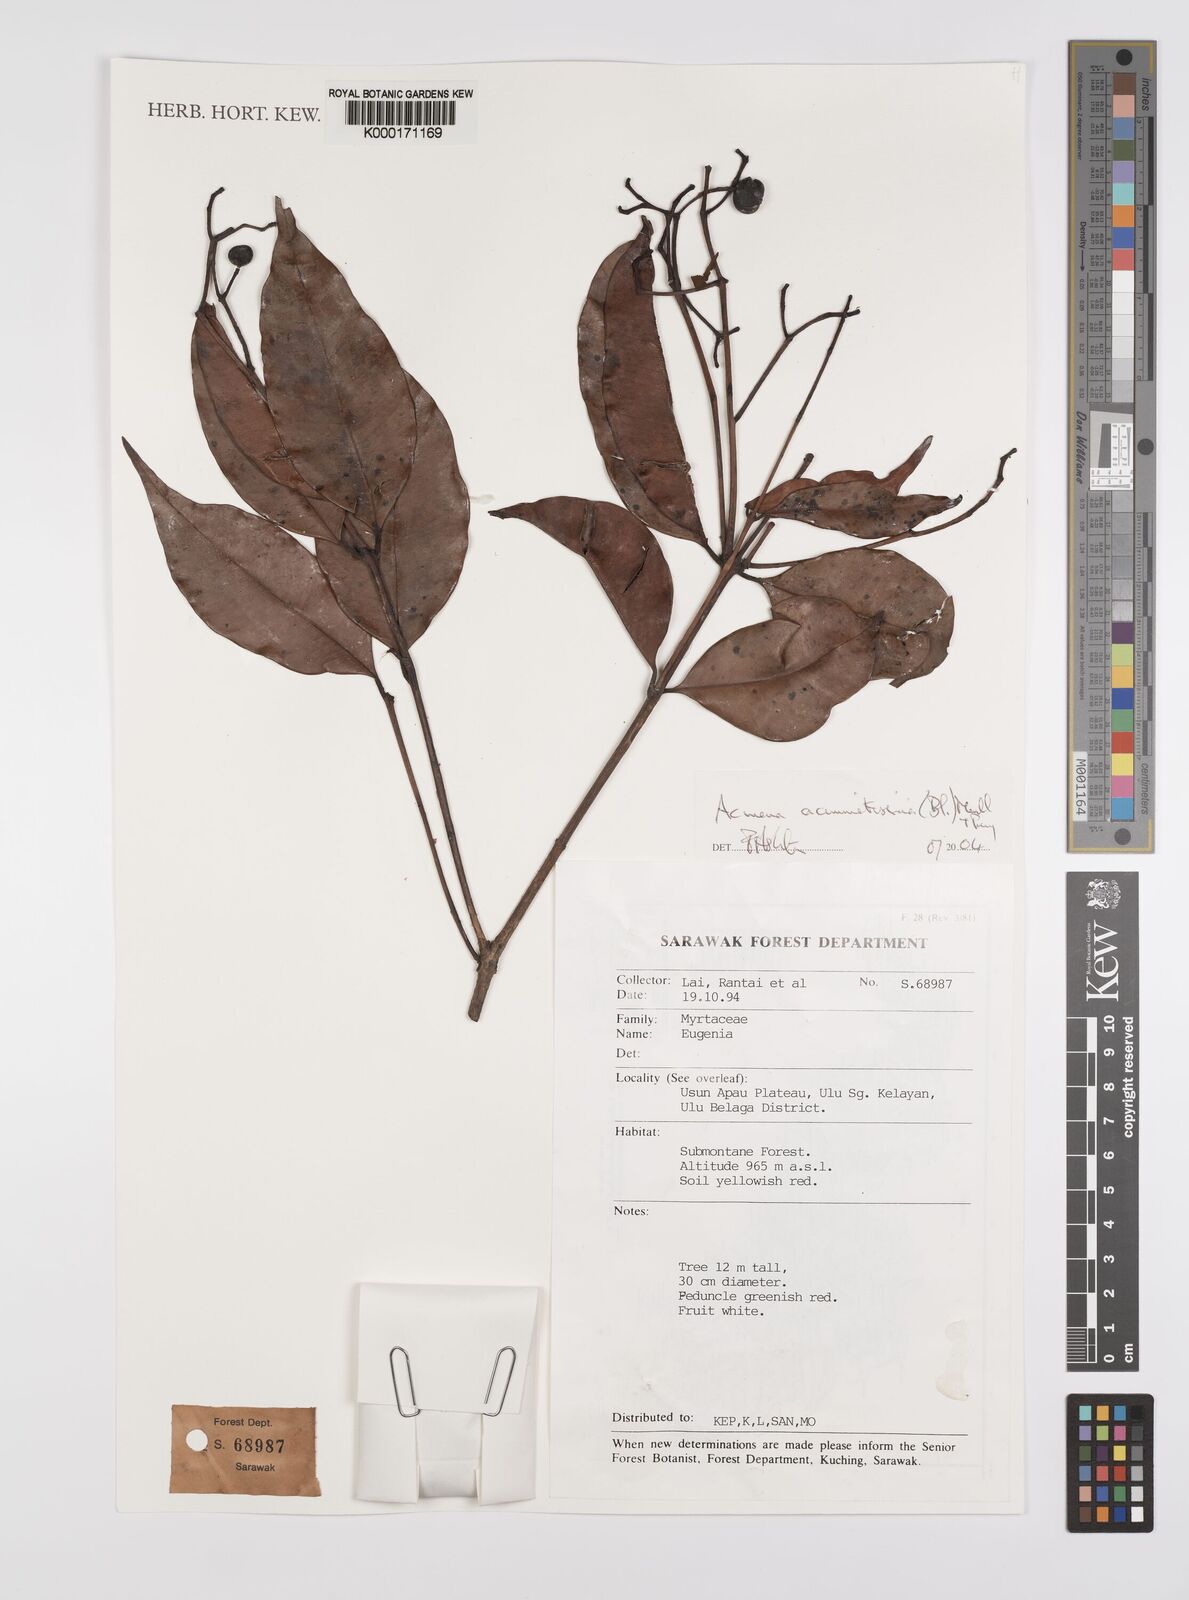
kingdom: Plantae
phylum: Tracheophyta
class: Magnoliopsida
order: Myrtales
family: Myrtaceae
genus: Syzygium
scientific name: Syzygium acuminatissimum
